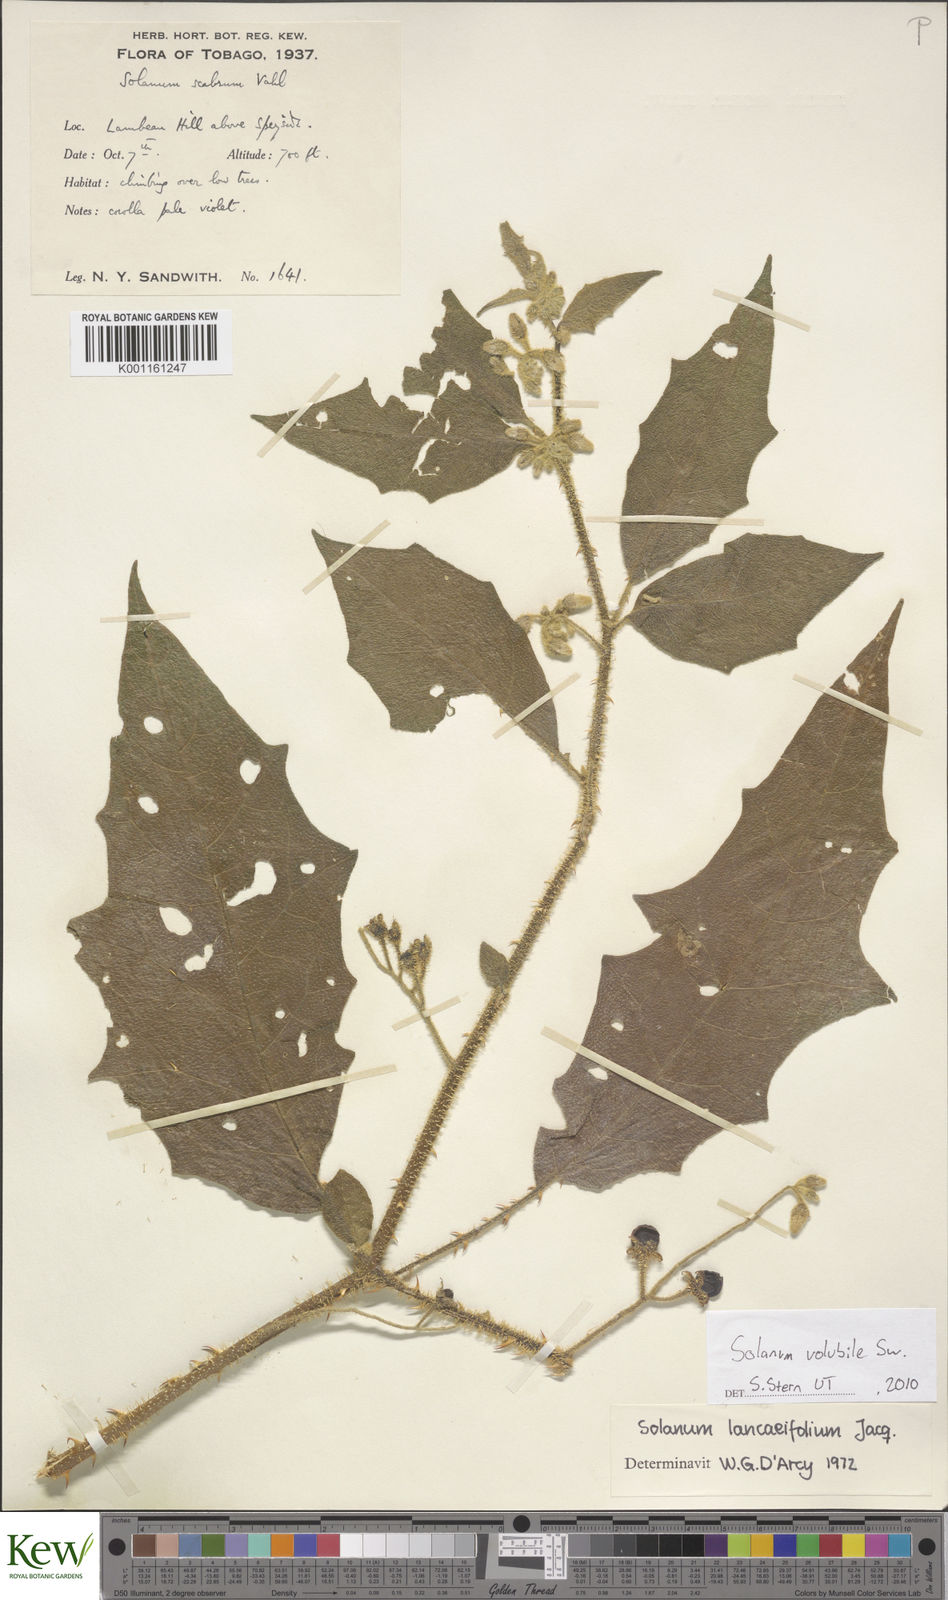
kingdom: Plantae
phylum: Tracheophyta
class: Magnoliopsida
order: Solanales
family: Solanaceae
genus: Solanum
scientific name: Solanum volubile
